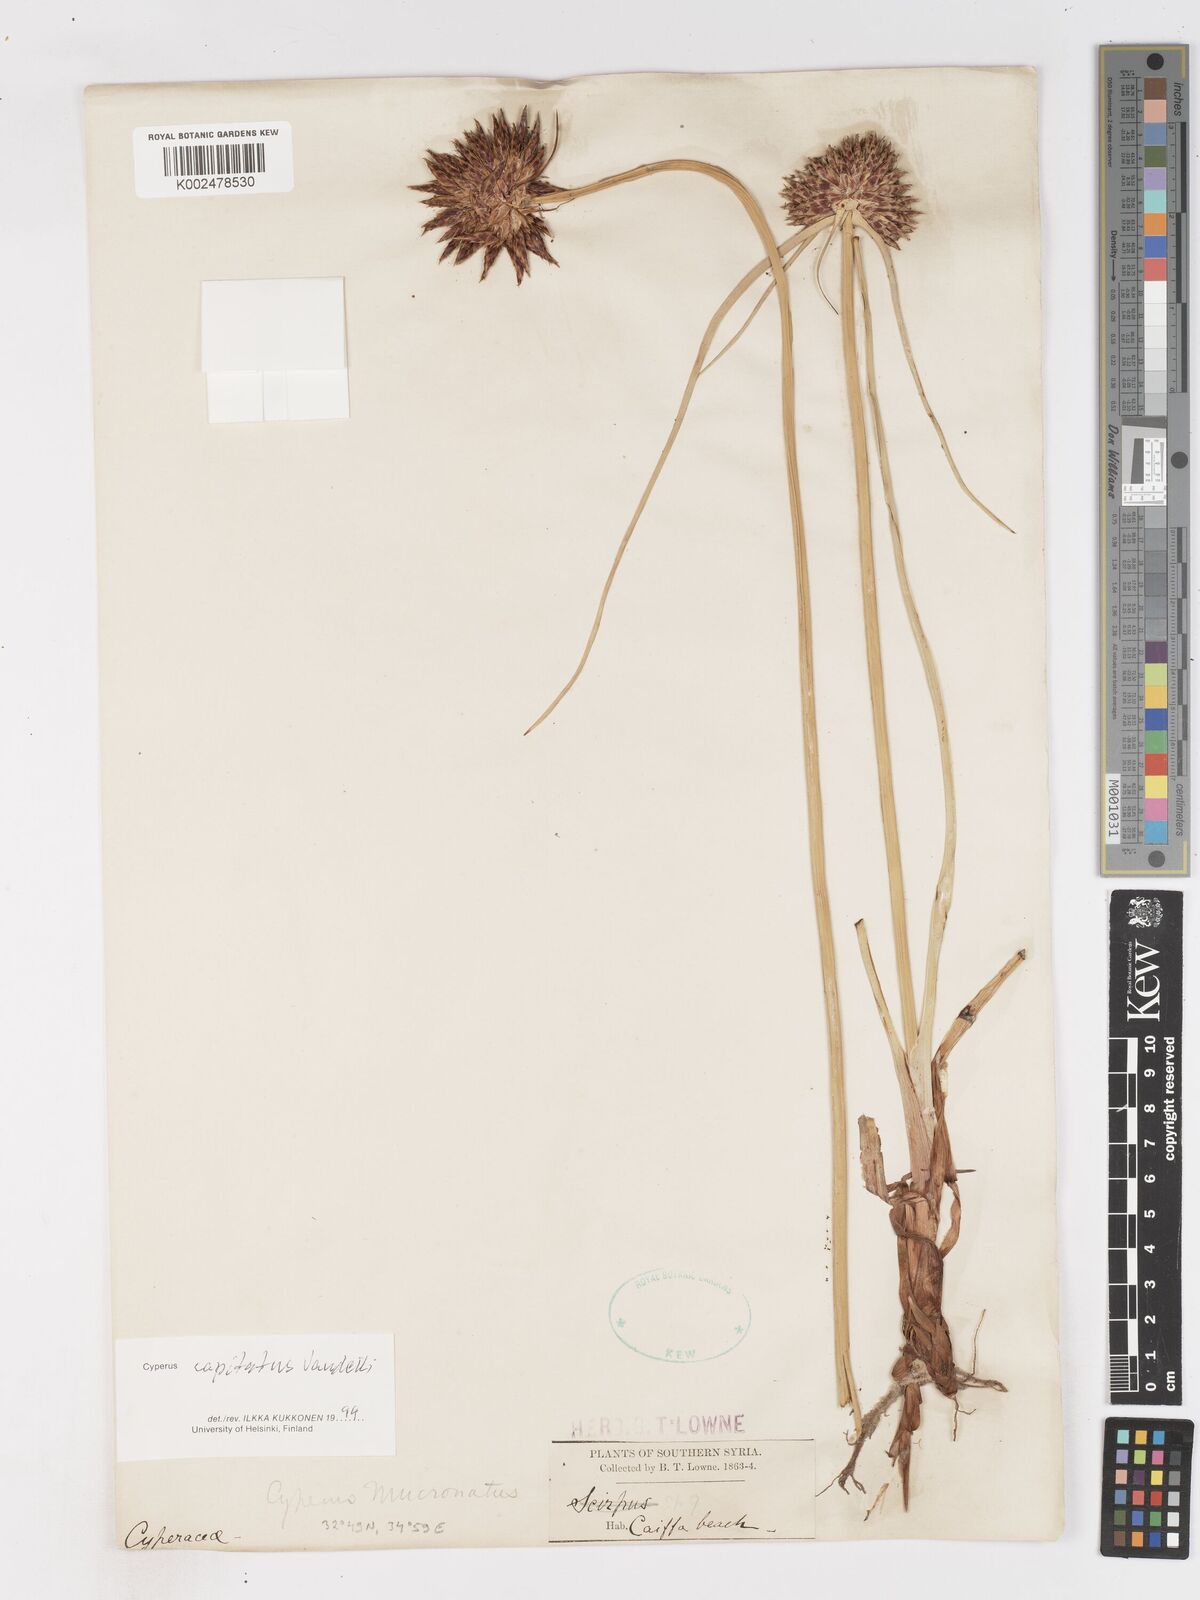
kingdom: Plantae
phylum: Tracheophyta
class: Liliopsida
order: Poales
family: Cyperaceae
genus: Cyperus
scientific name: Cyperus capitatus
